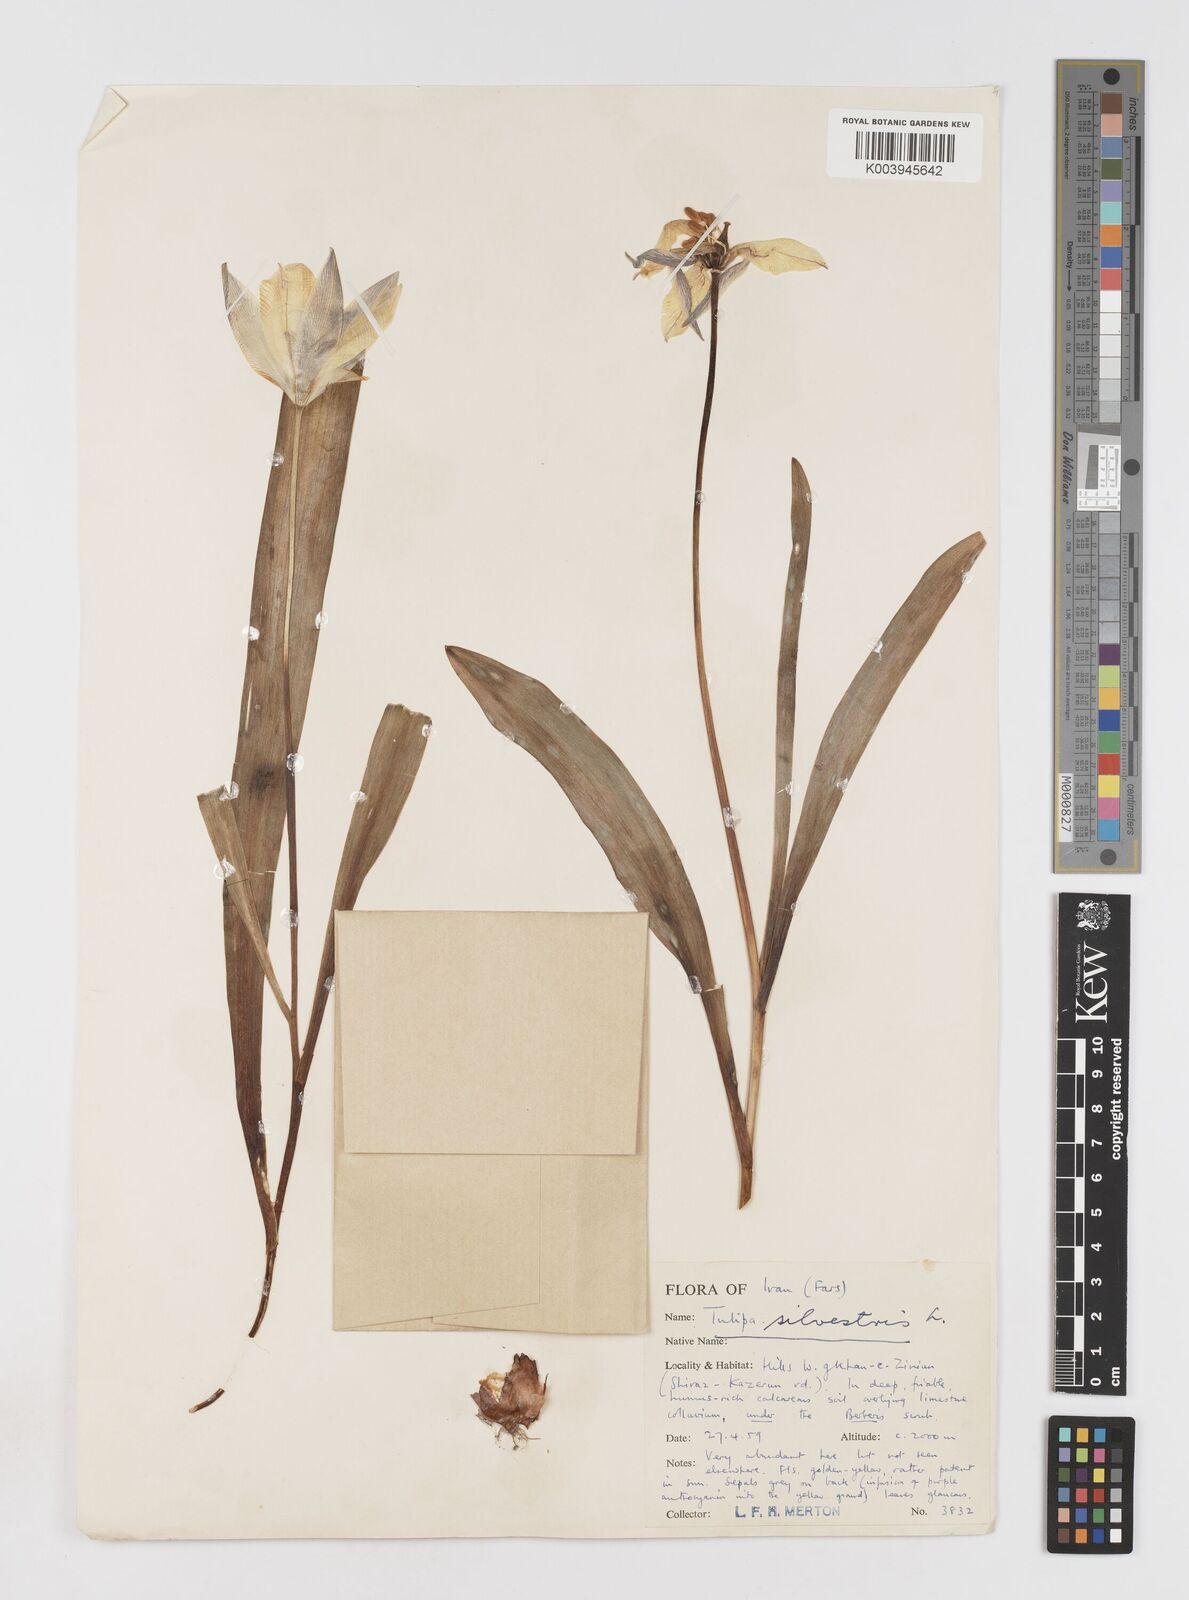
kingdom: Plantae
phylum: Tracheophyta
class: Liliopsida
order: Liliales
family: Liliaceae
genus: Tulipa
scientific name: Tulipa sylvestris
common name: Wild tulip
